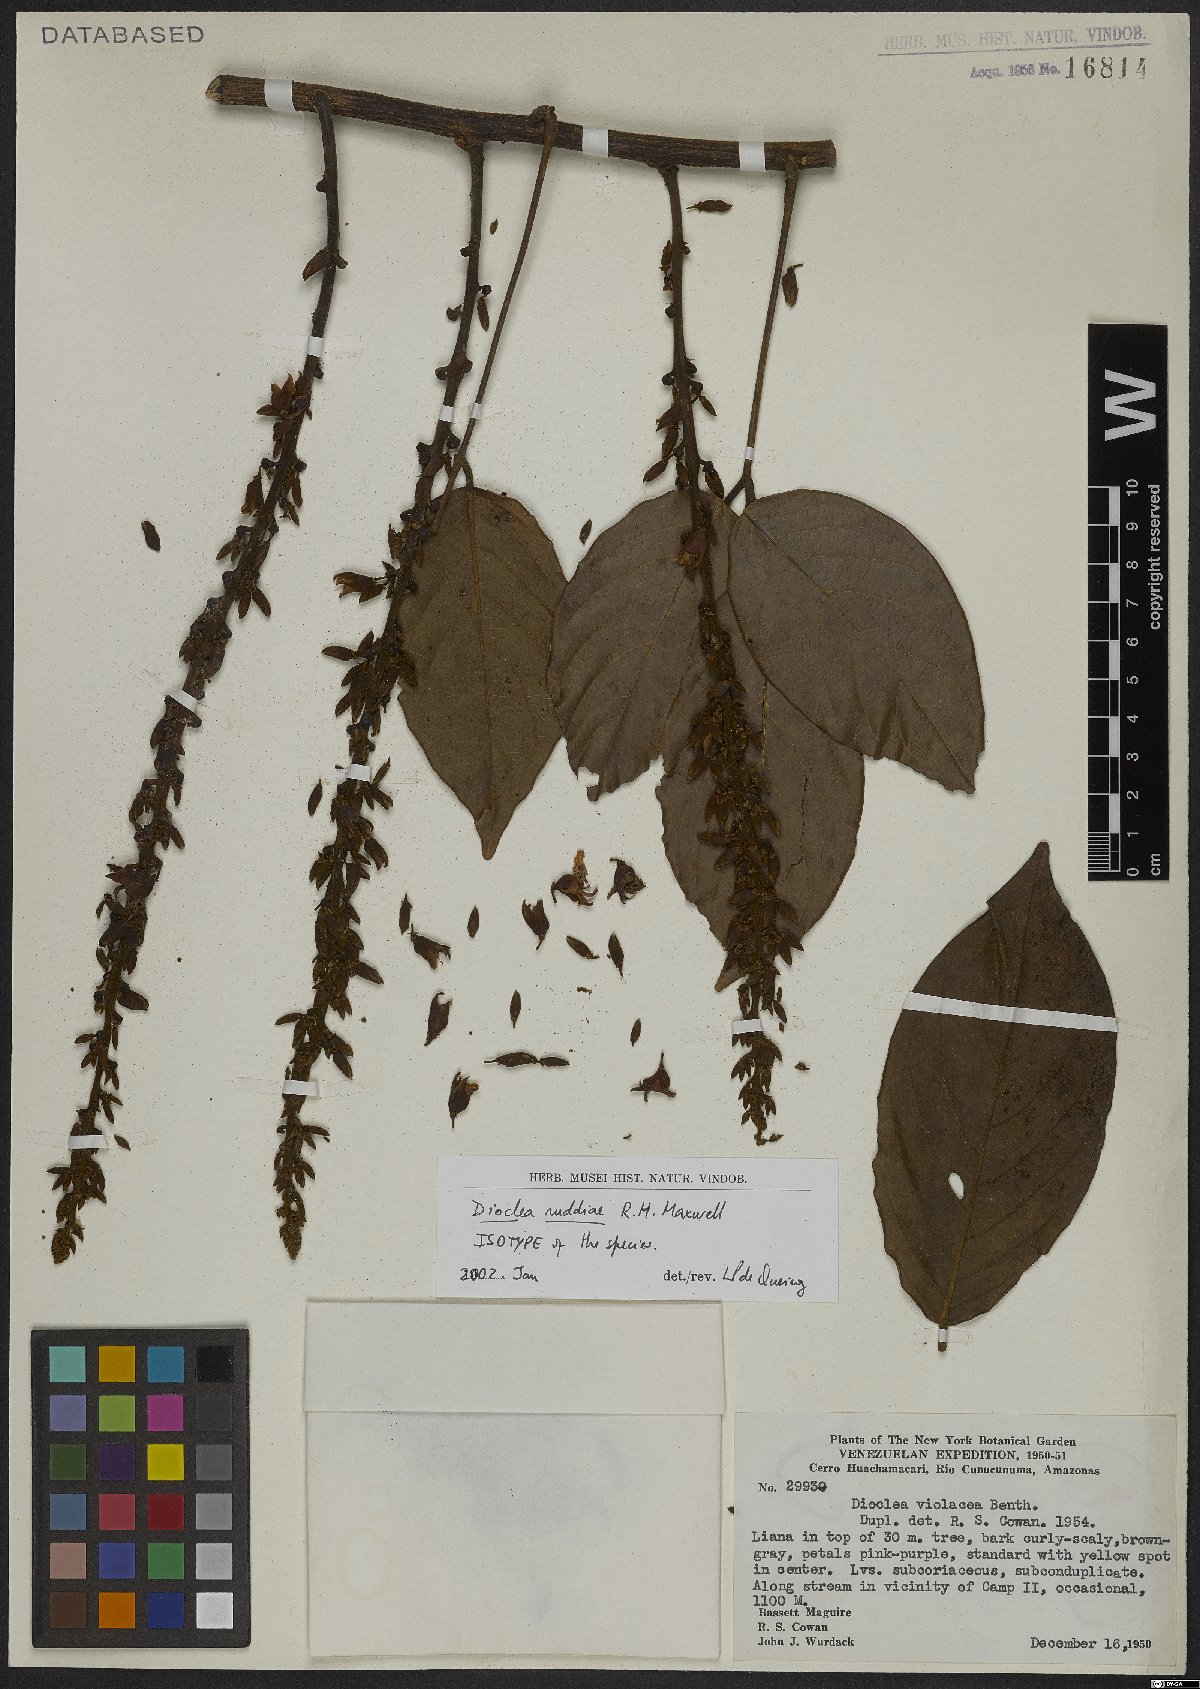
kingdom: Plantae
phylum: Tracheophyta
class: Magnoliopsida
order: Fabales
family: Fabaceae
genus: Macropsychanthus
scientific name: Macropsychanthus ruddiae
